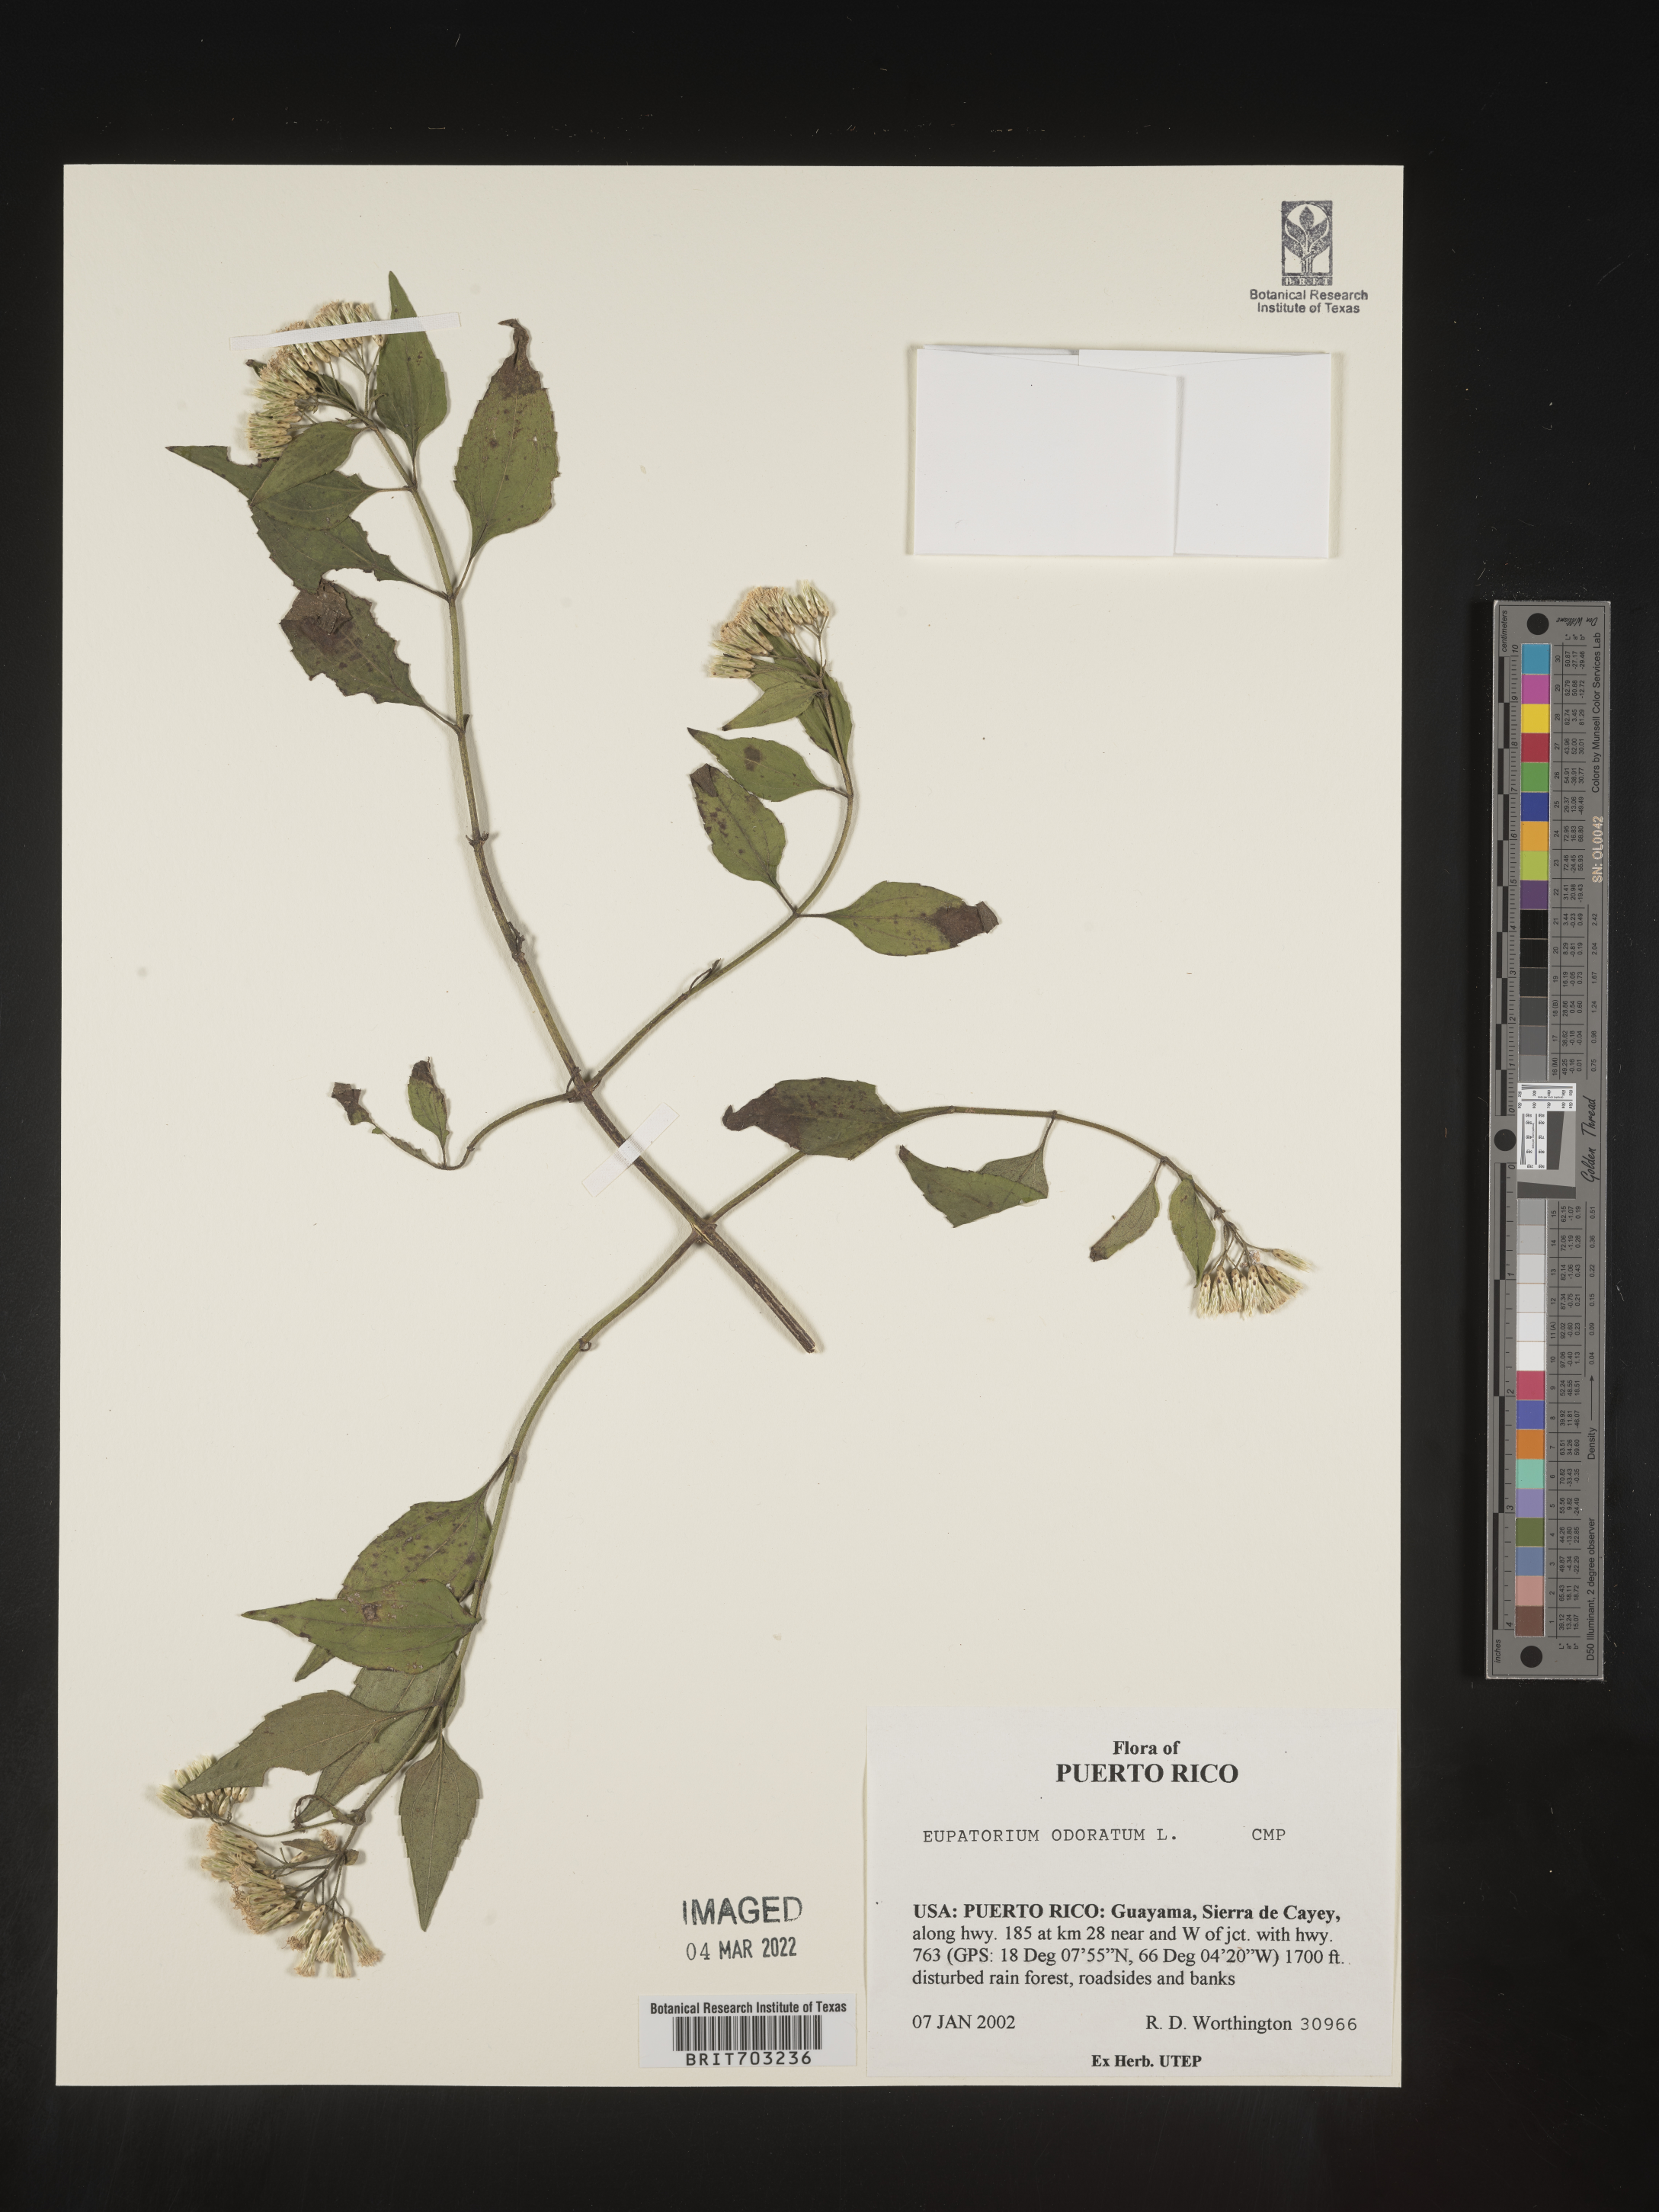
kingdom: Plantae
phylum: Tracheophyta
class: Magnoliopsida
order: Asterales
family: Asteraceae
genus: Eupatorium
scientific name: Eupatorium
